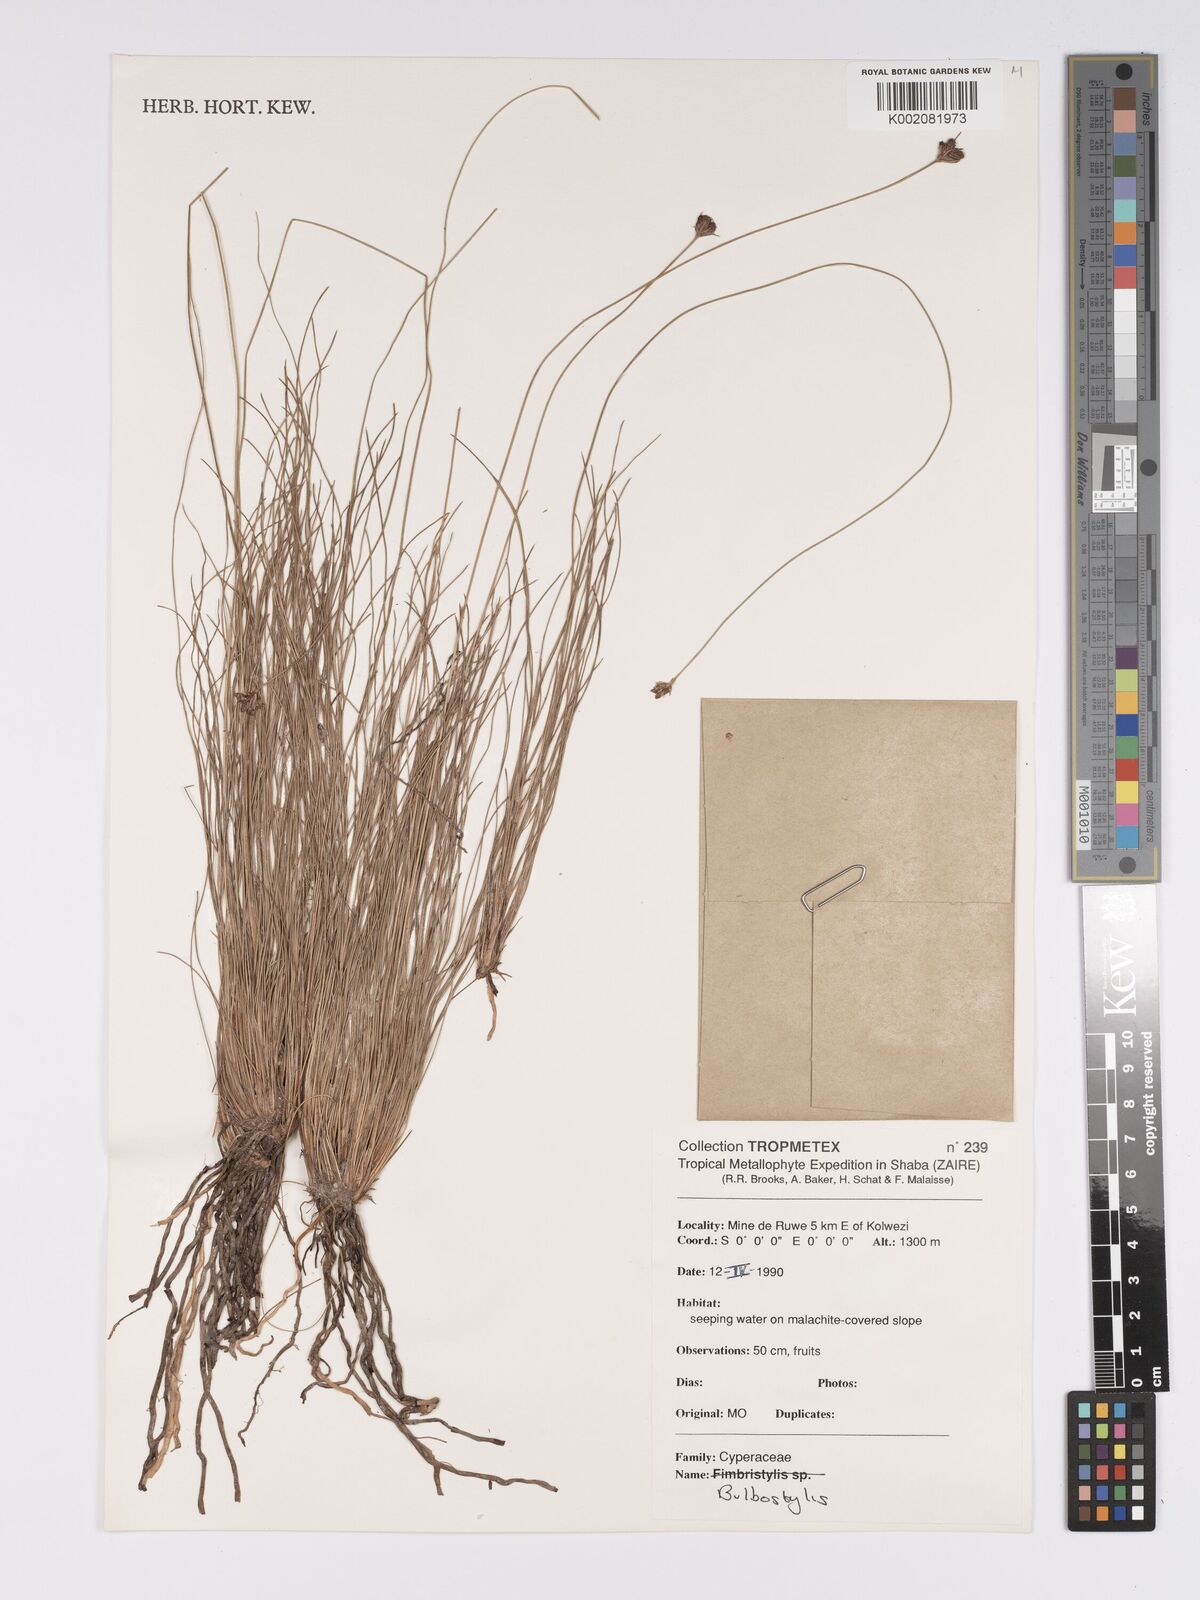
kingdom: Plantae
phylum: Tracheophyta
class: Liliopsida
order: Poales
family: Cyperaceae
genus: Bulbostylis
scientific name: Bulbostylis
